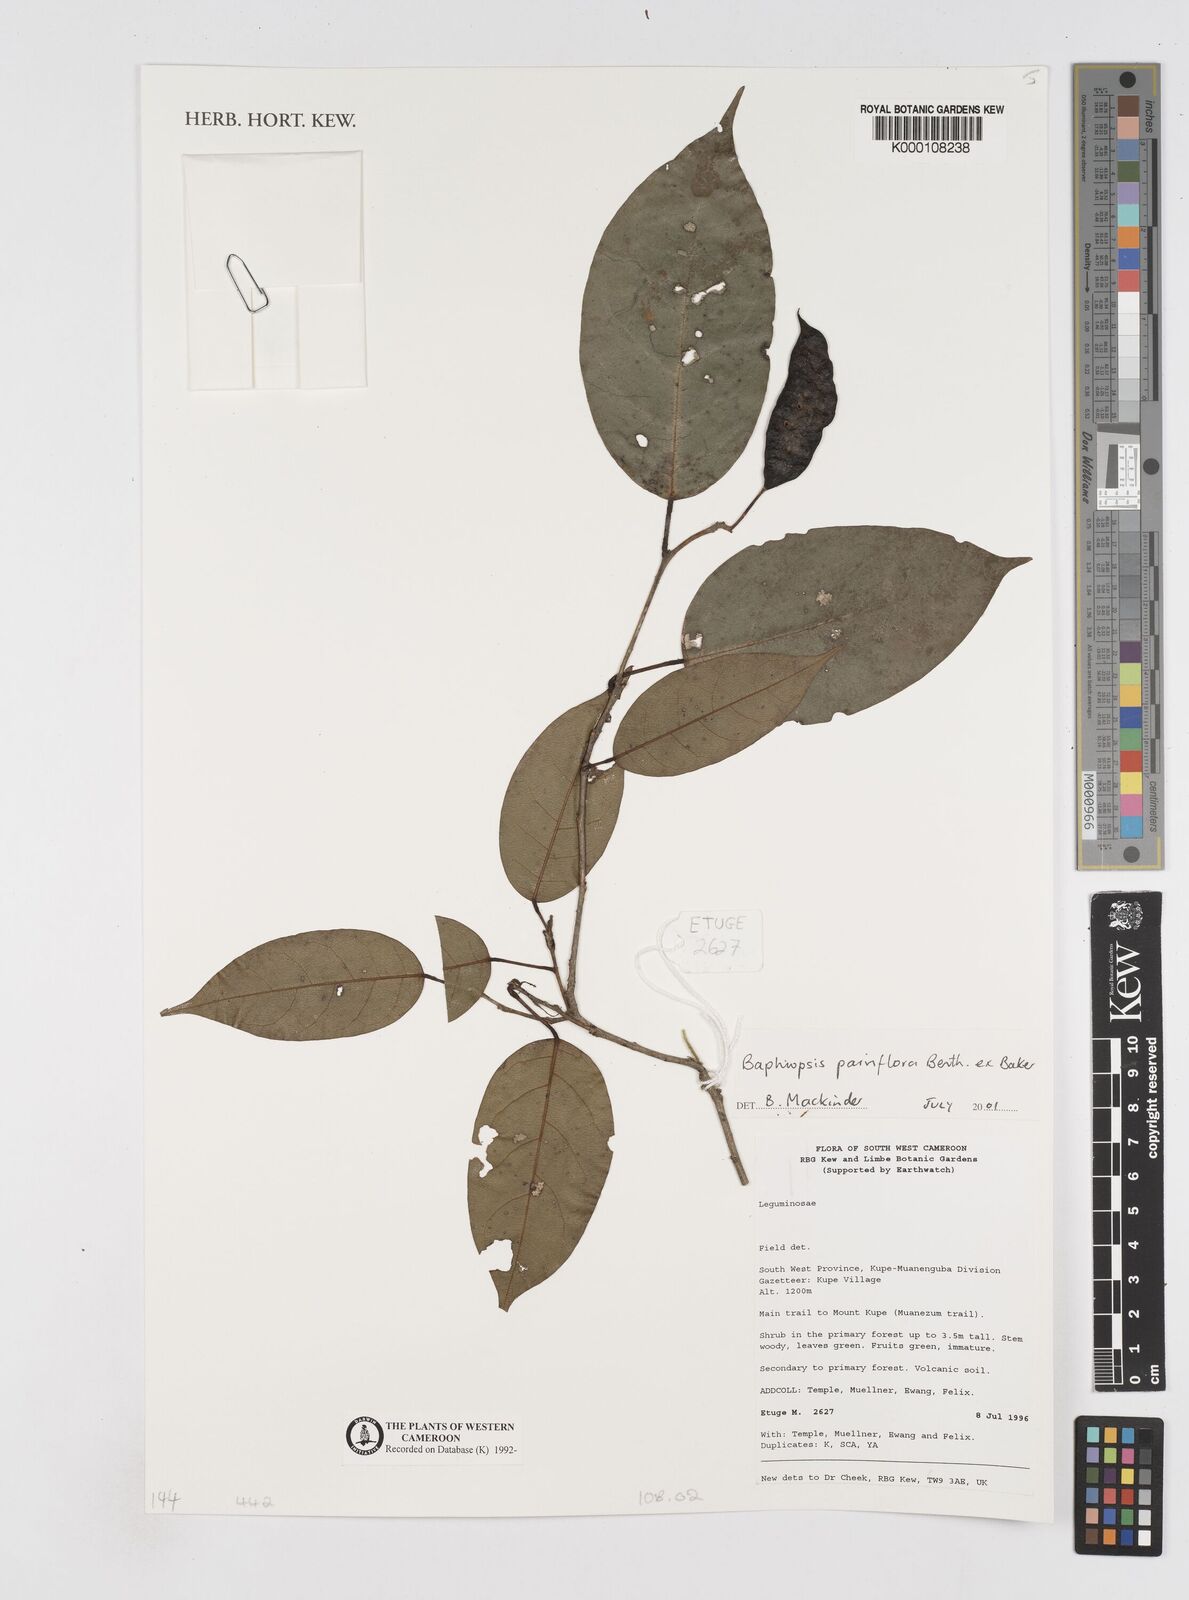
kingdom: Plantae
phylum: Tracheophyta
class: Magnoliopsida
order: Fabales
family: Fabaceae
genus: Baphiopsis
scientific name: Baphiopsis parviflora
